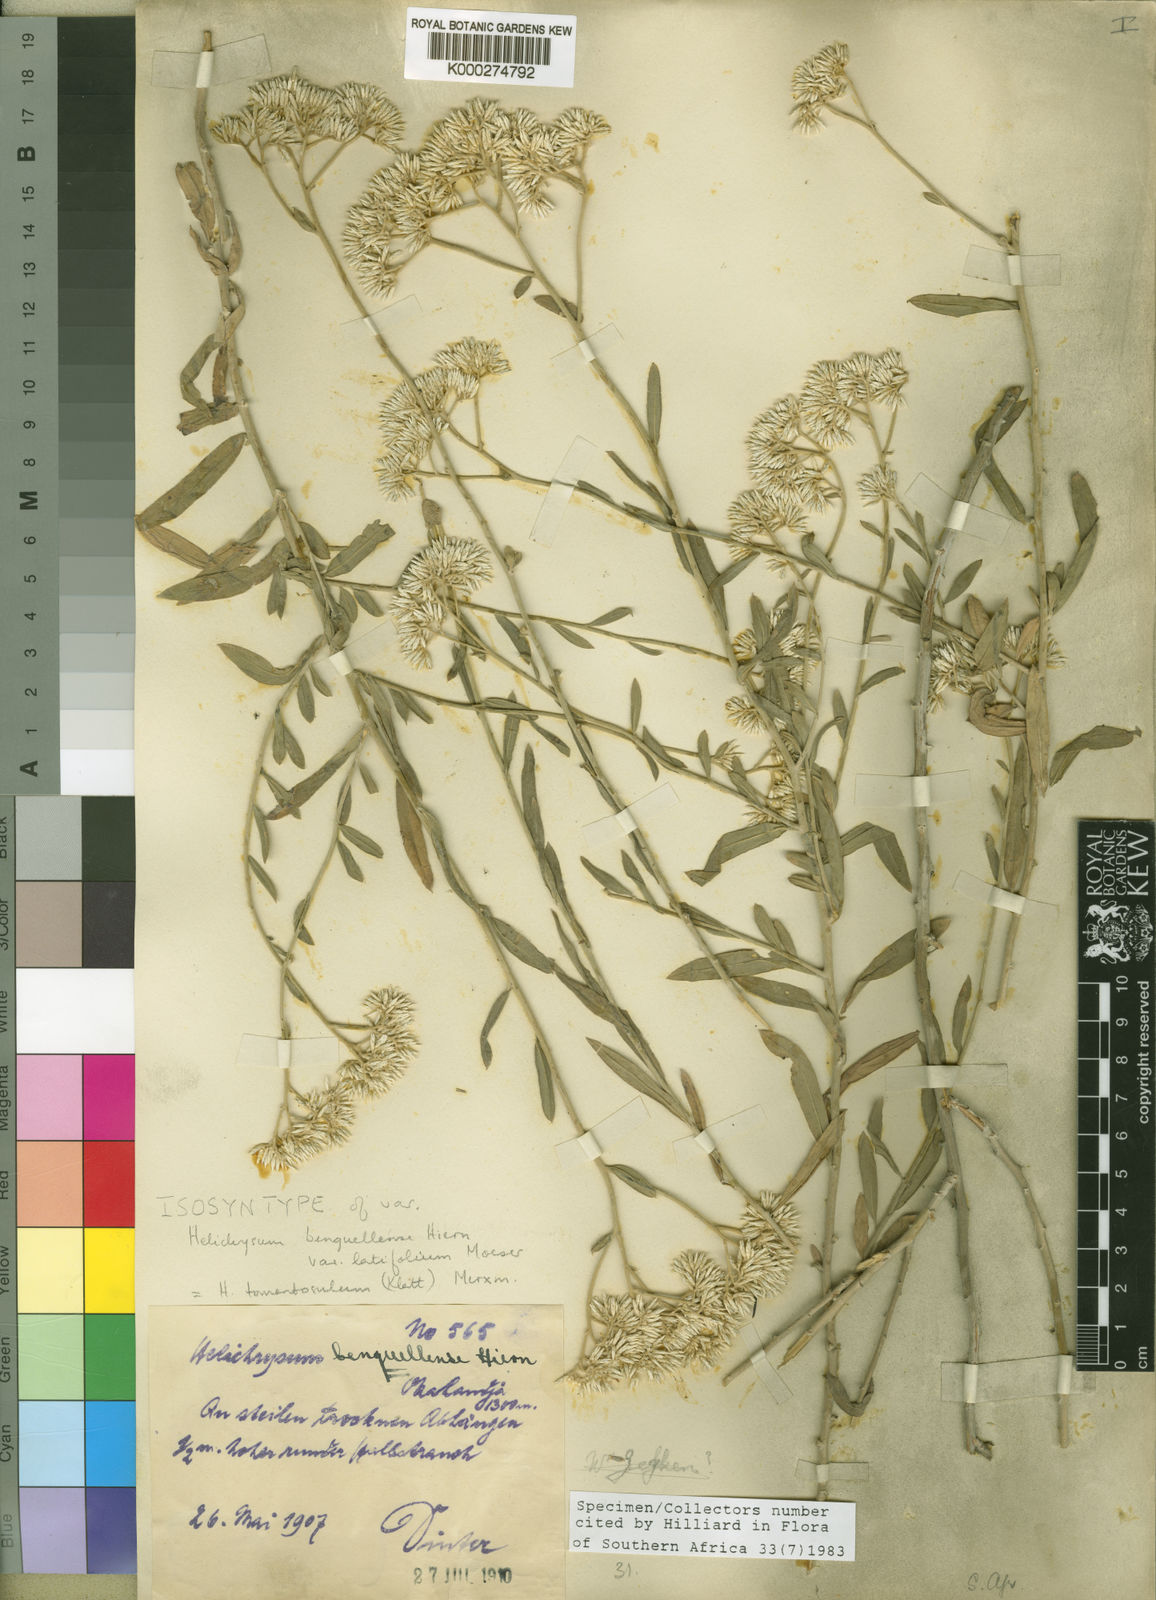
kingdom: Plantae
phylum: Tracheophyta
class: Magnoliopsida
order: Asterales
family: Asteraceae
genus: Helichrysum
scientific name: Helichrysum tomentosulum
